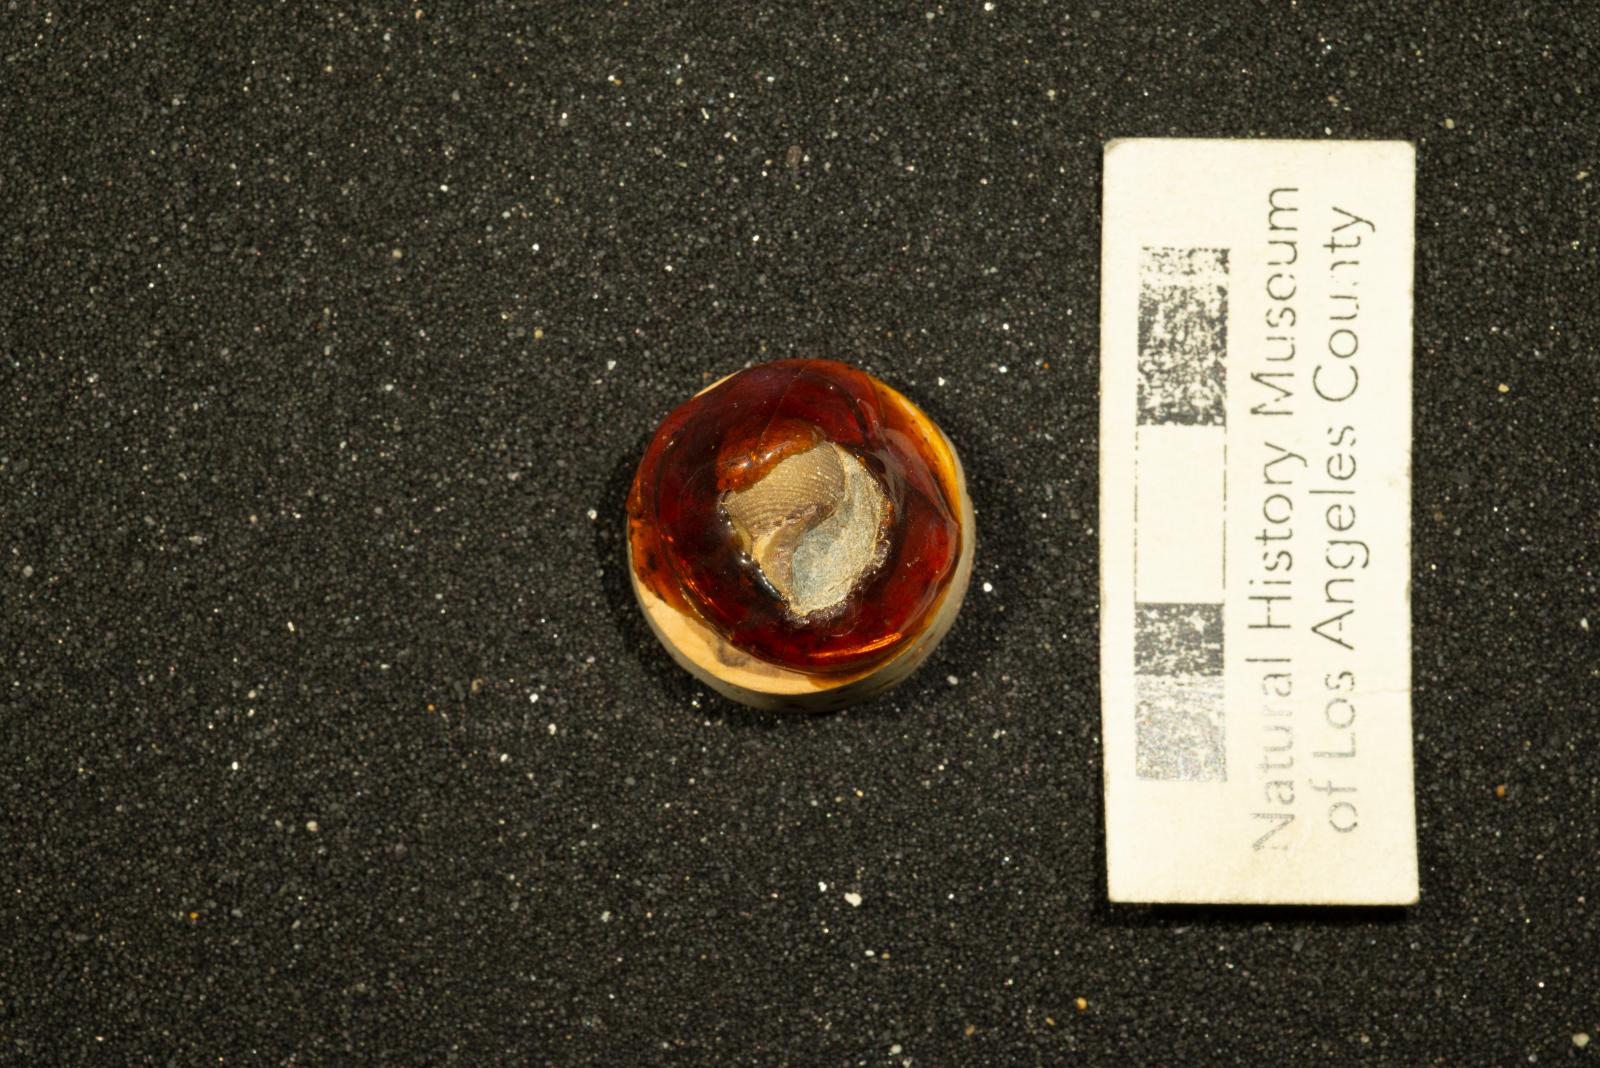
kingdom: Animalia
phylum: Mollusca
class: Gastropoda
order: Cephalaspidea
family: Ringiculidae
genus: Biplica
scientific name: Biplica miniplicata
